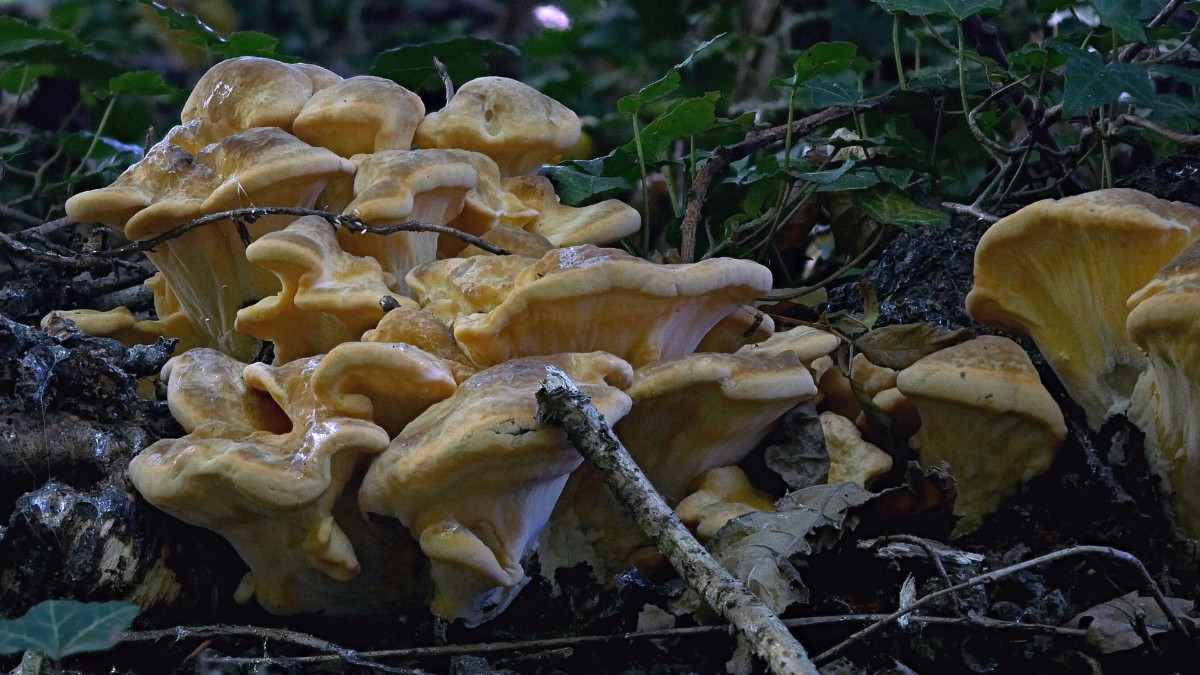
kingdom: Fungi
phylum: Basidiomycota
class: Agaricomycetes
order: Polyporales
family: Meripilaceae
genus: Meripilus
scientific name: Meripilus giganteus
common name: kæmpeporesvamp
